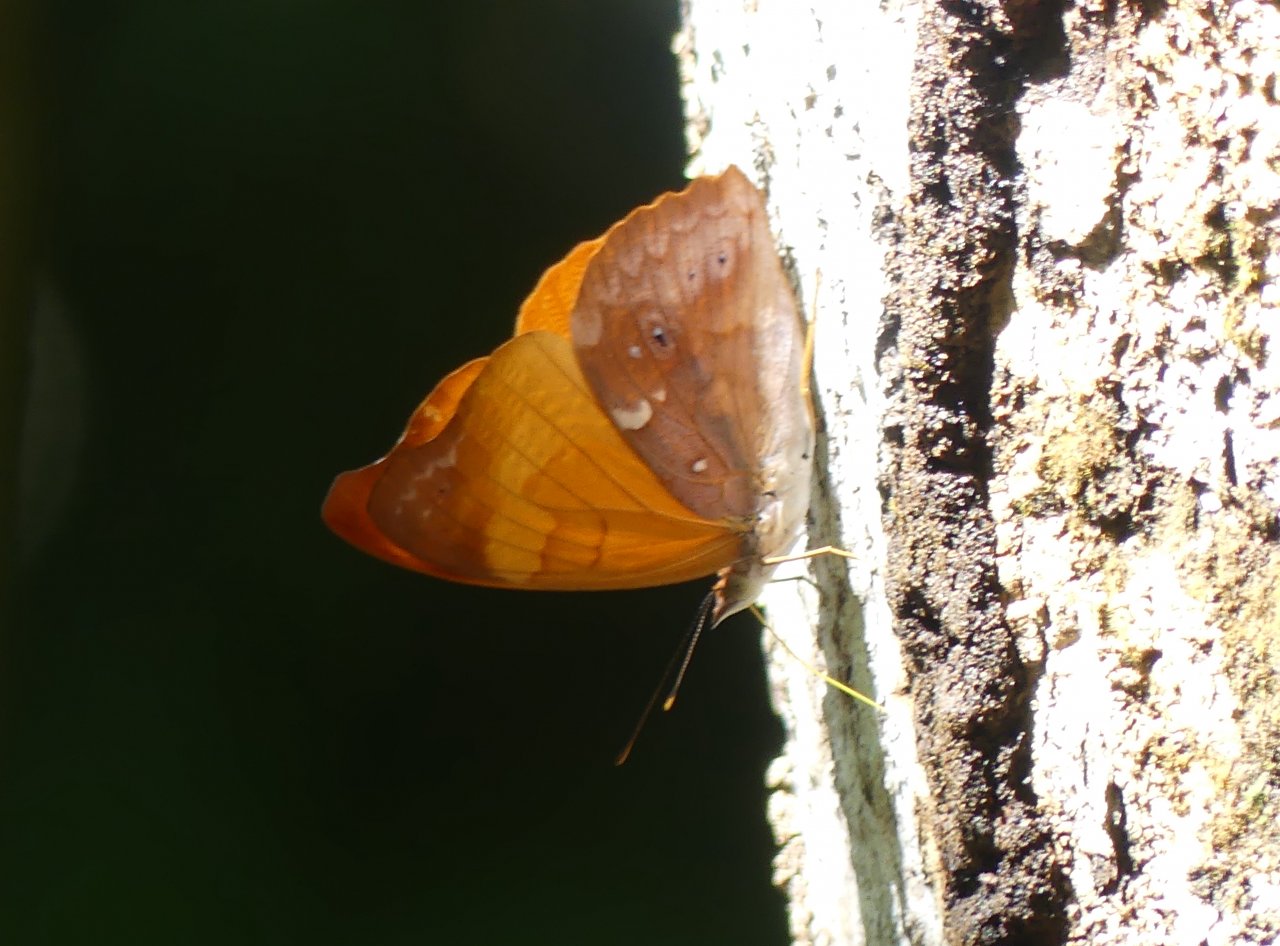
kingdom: Animalia
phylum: Arthropoda
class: Insecta
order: Lepidoptera
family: Nymphalidae
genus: Temenis
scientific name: Temenis laothoe
